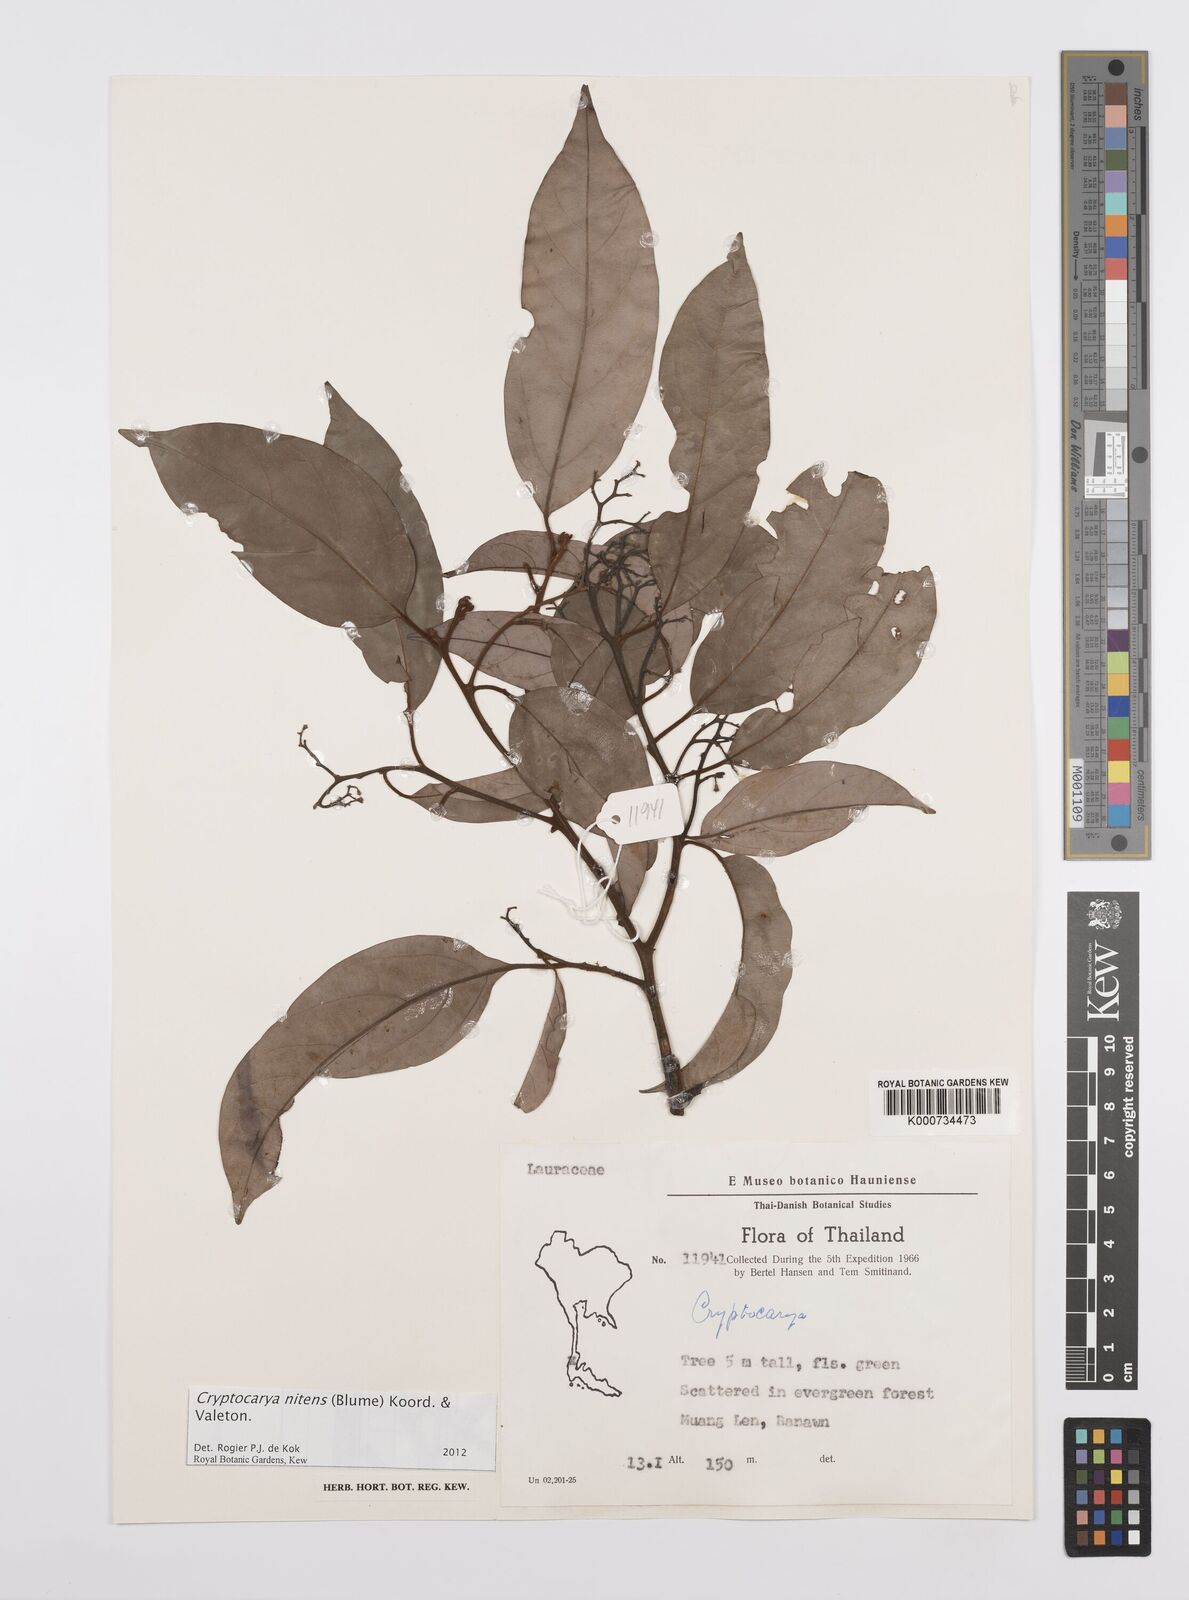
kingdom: Plantae
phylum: Tracheophyta
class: Magnoliopsida
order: Laurales
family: Lauraceae
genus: Cryptocarya
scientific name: Cryptocarya nitens
